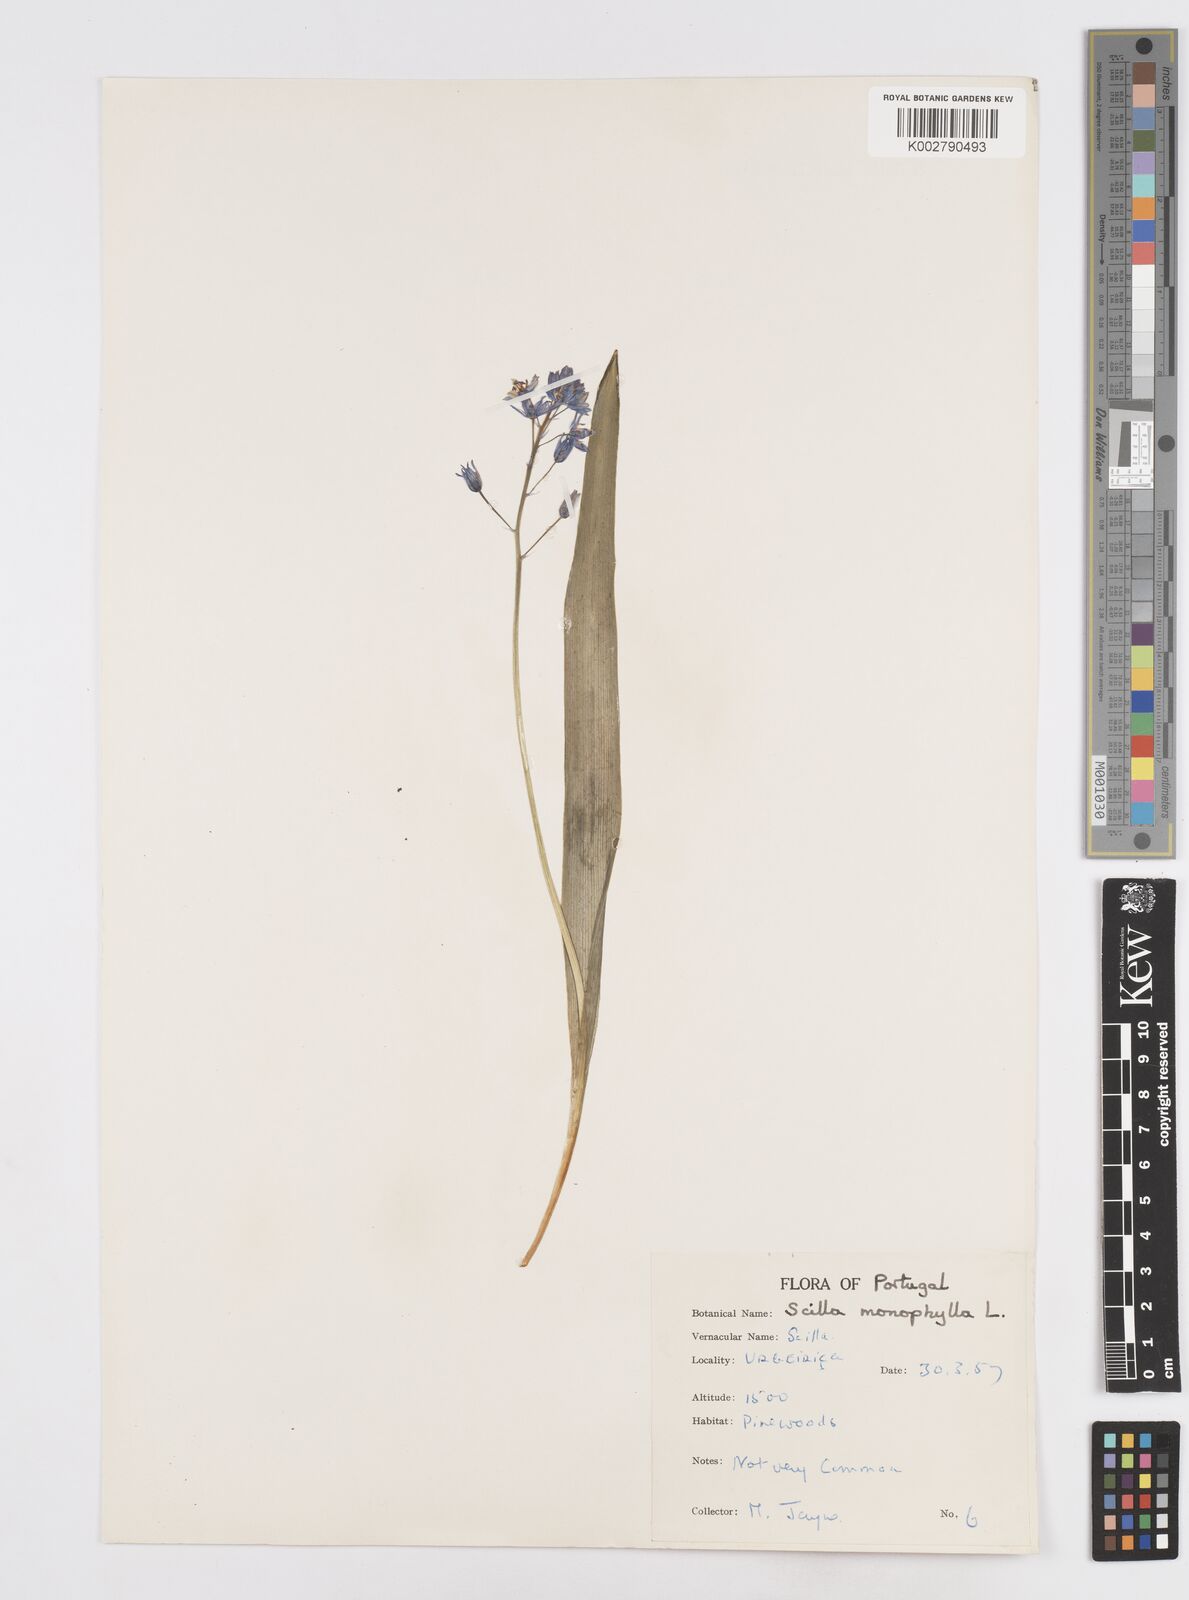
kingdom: Plantae
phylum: Tracheophyta
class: Liliopsida
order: Asparagales
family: Asparagaceae
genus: Scilla
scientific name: Scilla monophyllos
